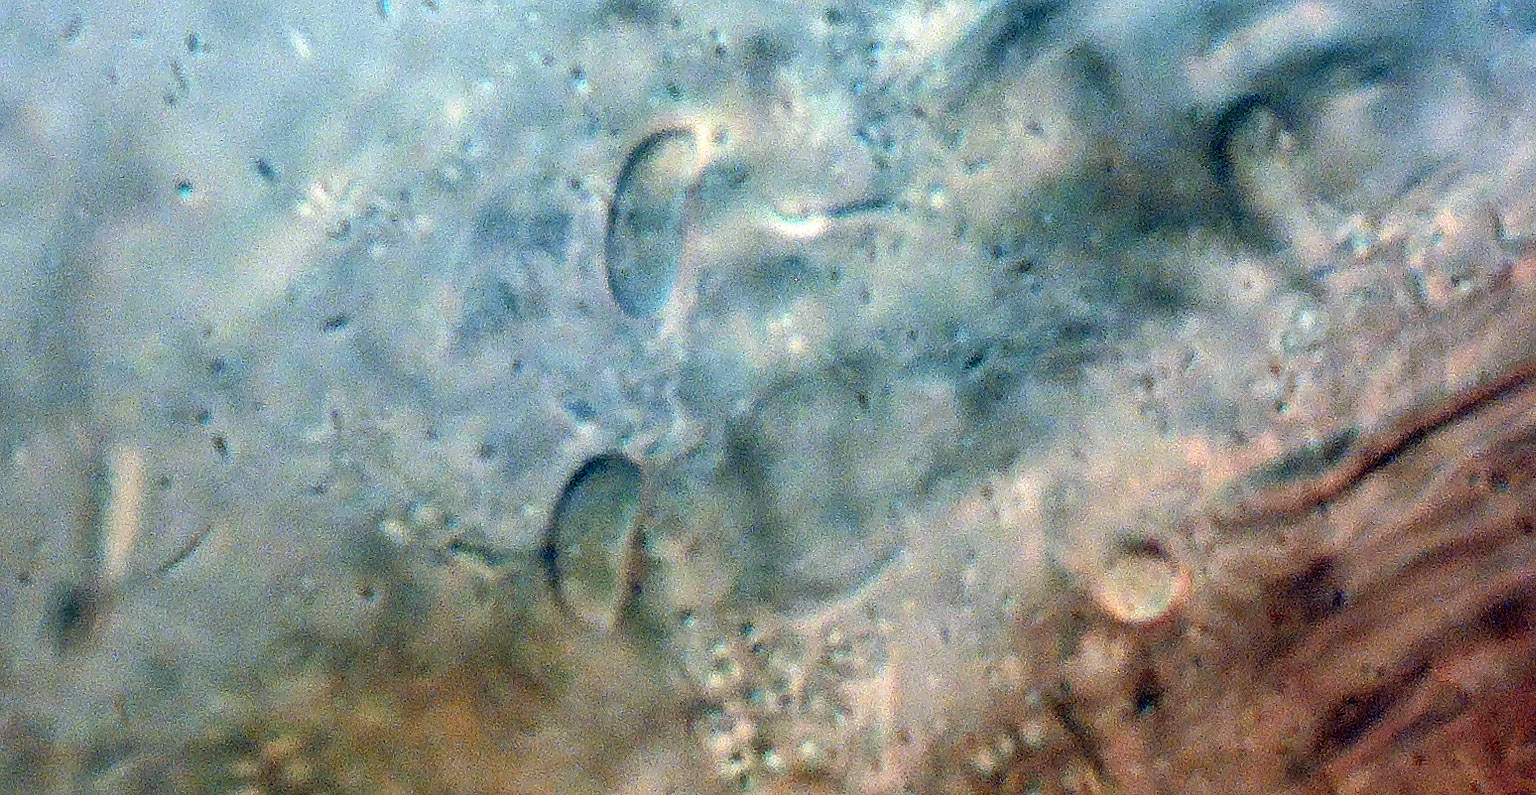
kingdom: Fungi
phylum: Basidiomycota
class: Agaricomycetes
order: Agaricales
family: Typhulaceae
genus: Typhula
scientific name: Typhula spathulata
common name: aske-trådkølle
